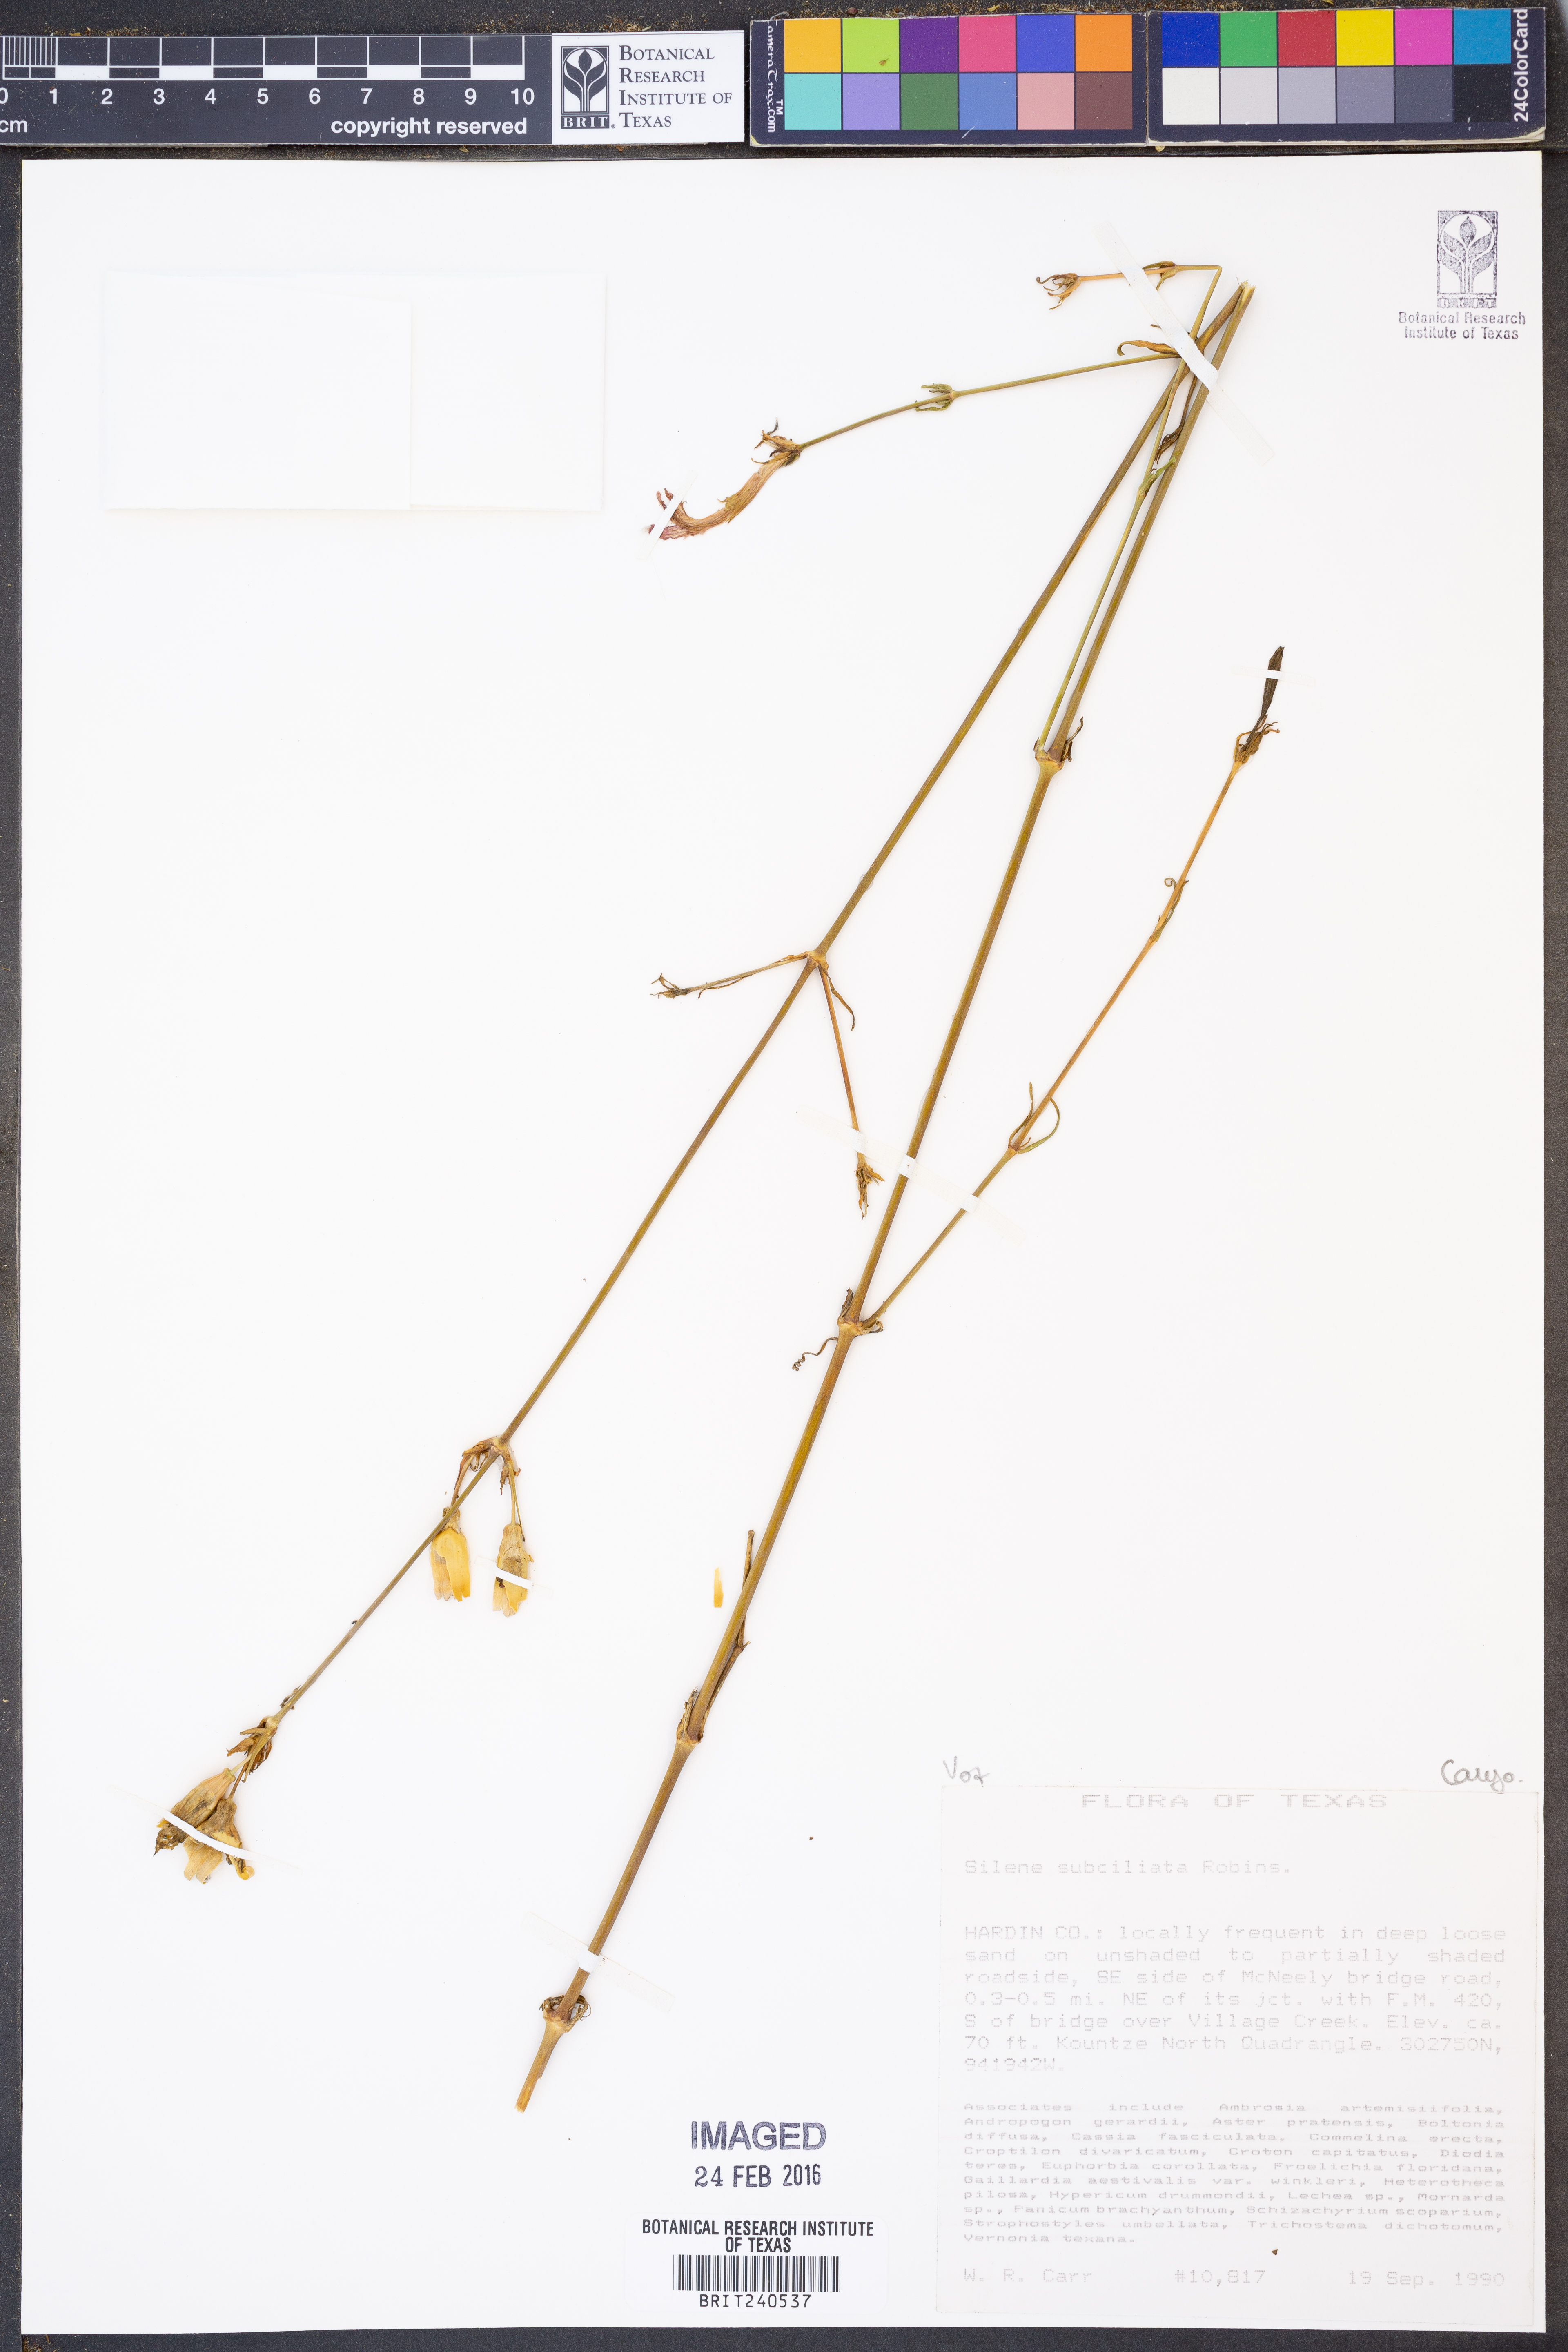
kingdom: Plantae
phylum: Tracheophyta
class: Magnoliopsida
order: Caryophyllales
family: Caryophyllaceae
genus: Silene
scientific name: Silene subciliata
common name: Prairie fire-pink
